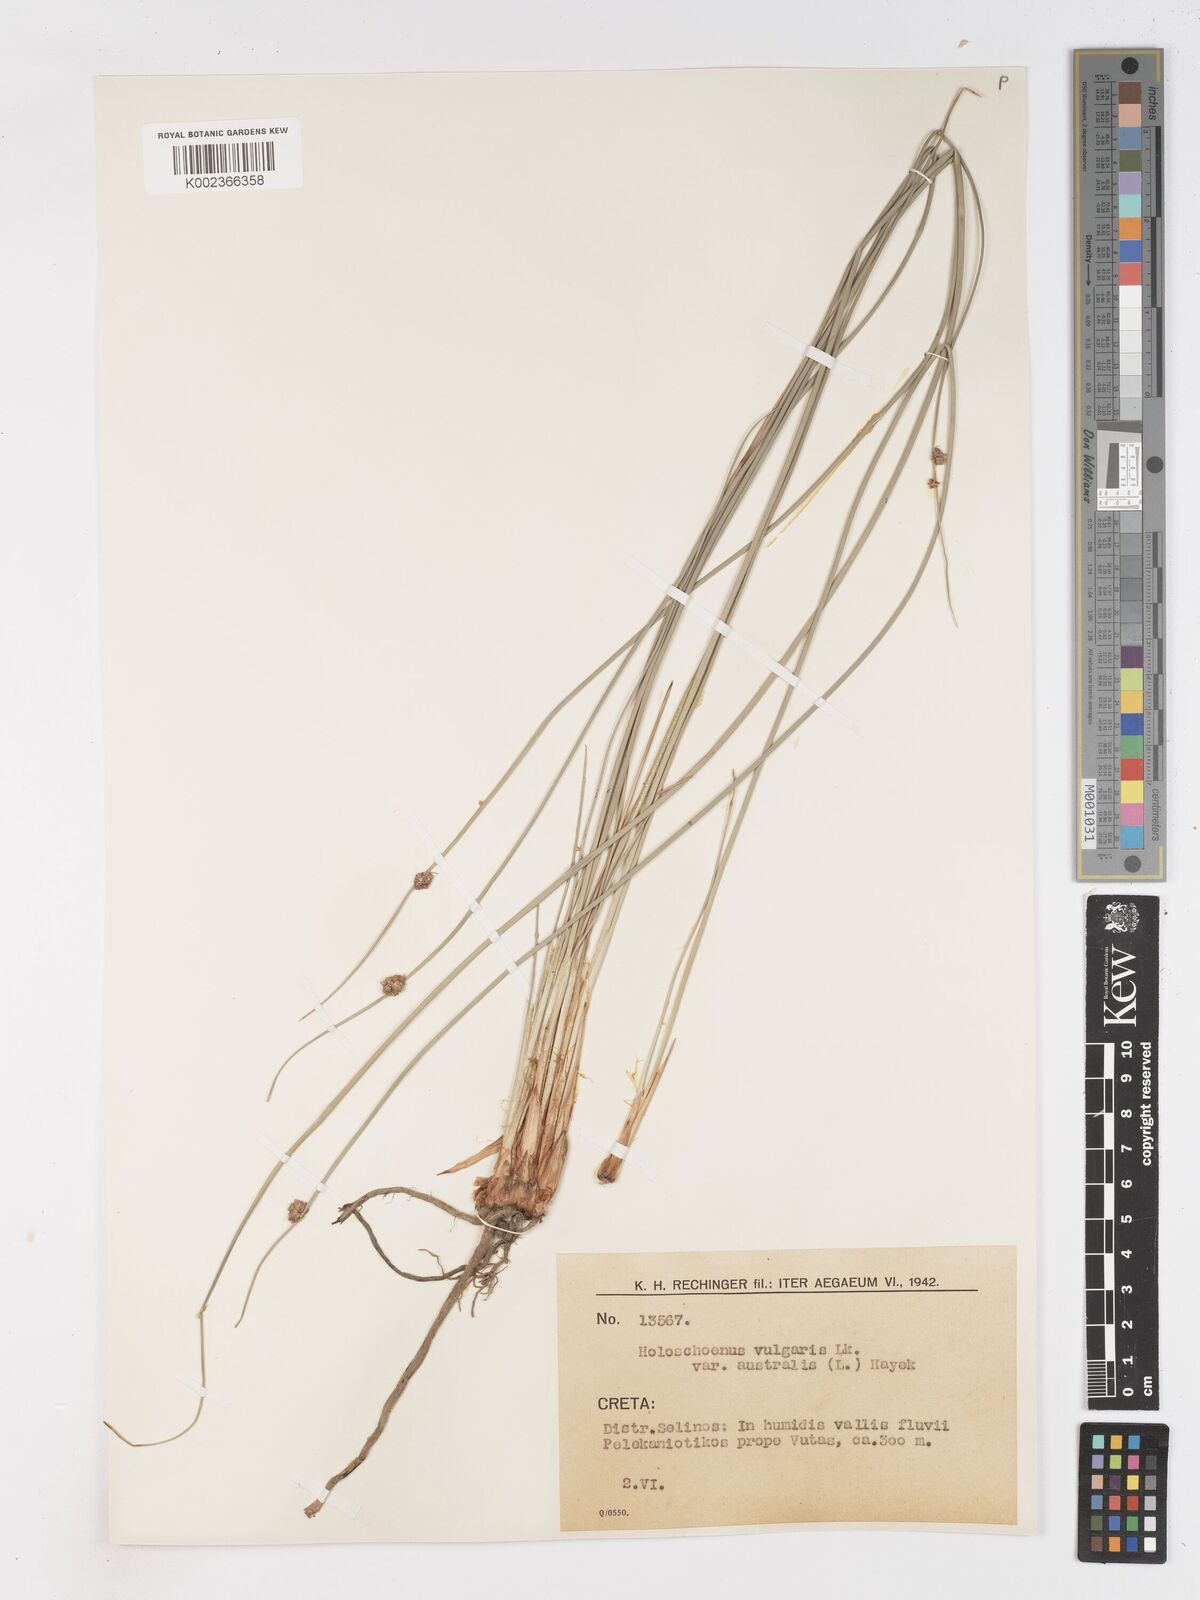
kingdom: Plantae
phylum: Tracheophyta
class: Liliopsida
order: Poales
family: Cyperaceae
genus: Scirpoides
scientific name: Scirpoides holoschoenus
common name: Round-headed club-rush
